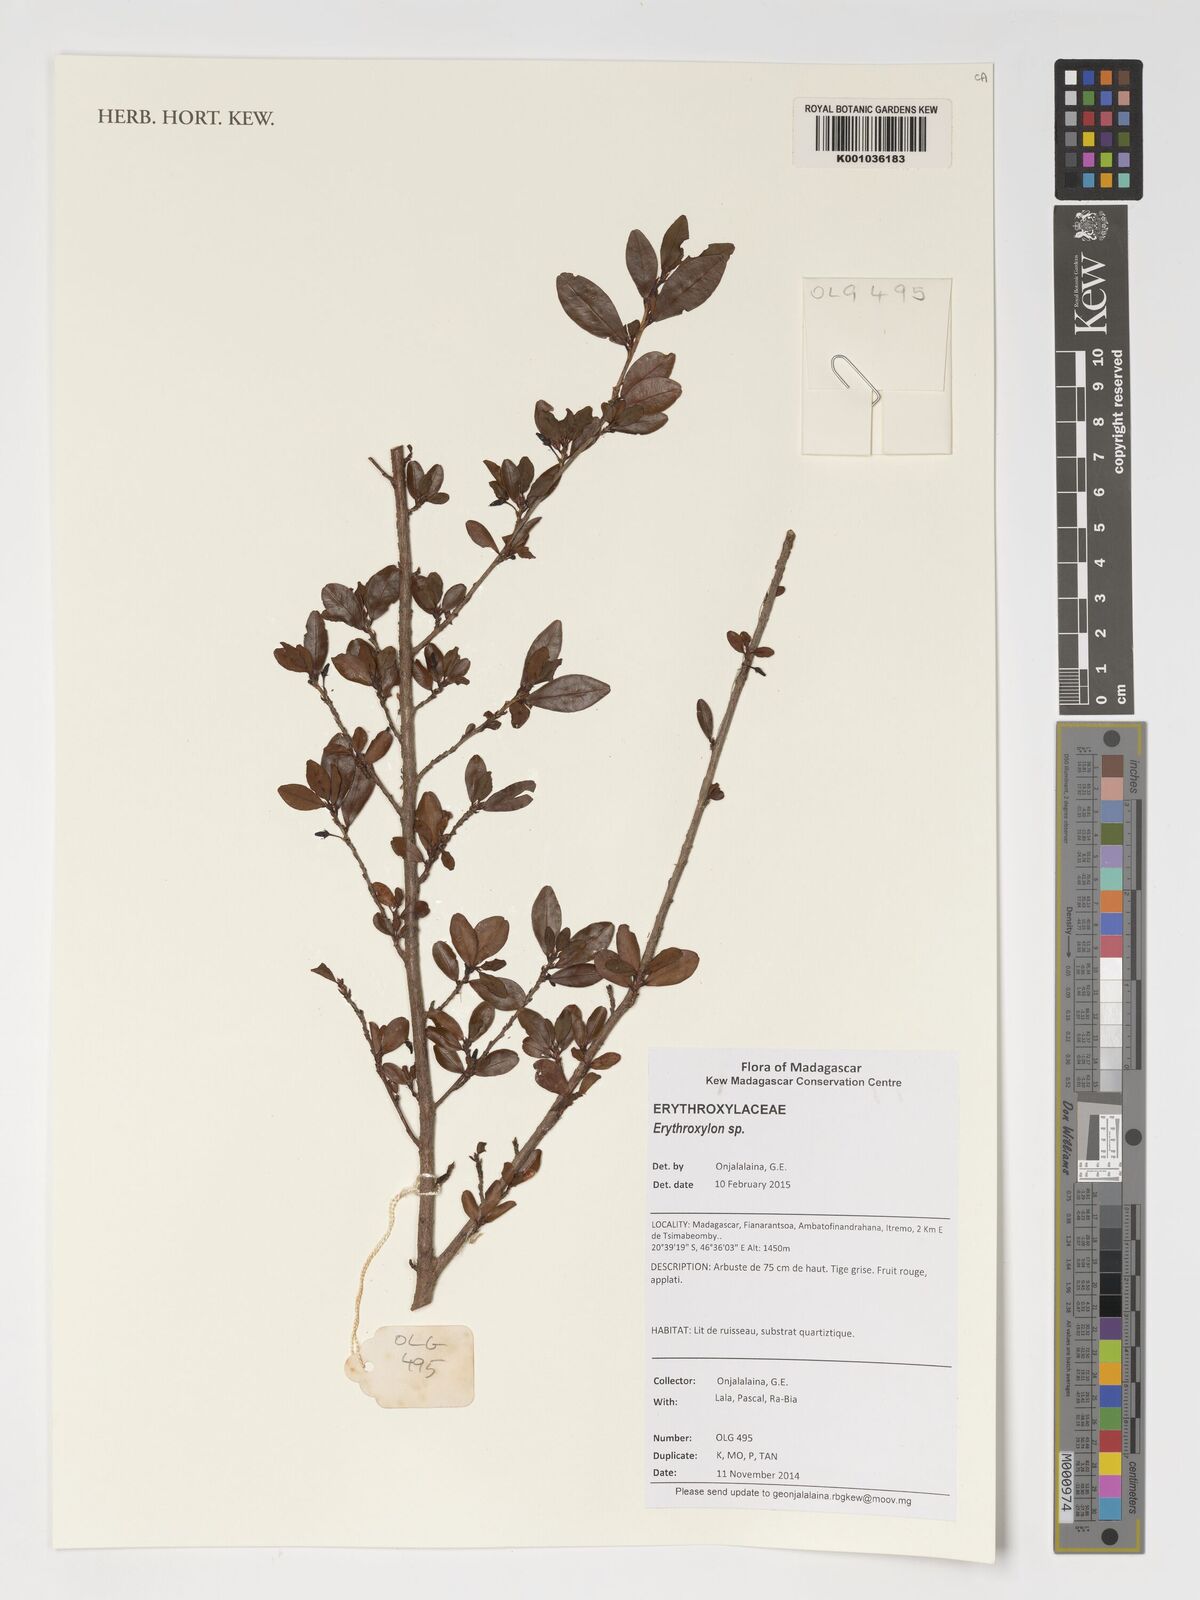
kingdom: Plantae
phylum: Tracheophyta
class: Magnoliopsida
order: Malpighiales
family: Erythroxylaceae
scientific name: Erythroxylaceae
